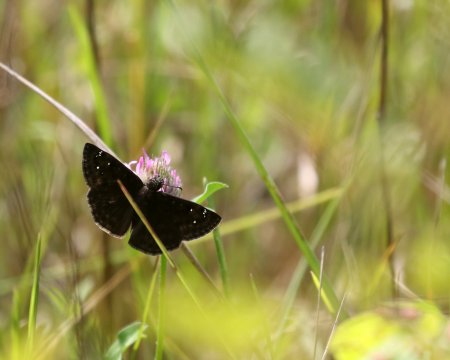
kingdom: Animalia
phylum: Arthropoda
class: Insecta
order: Lepidoptera
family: Hesperiidae
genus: Gesta
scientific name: Gesta
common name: Horace's Duskywing
